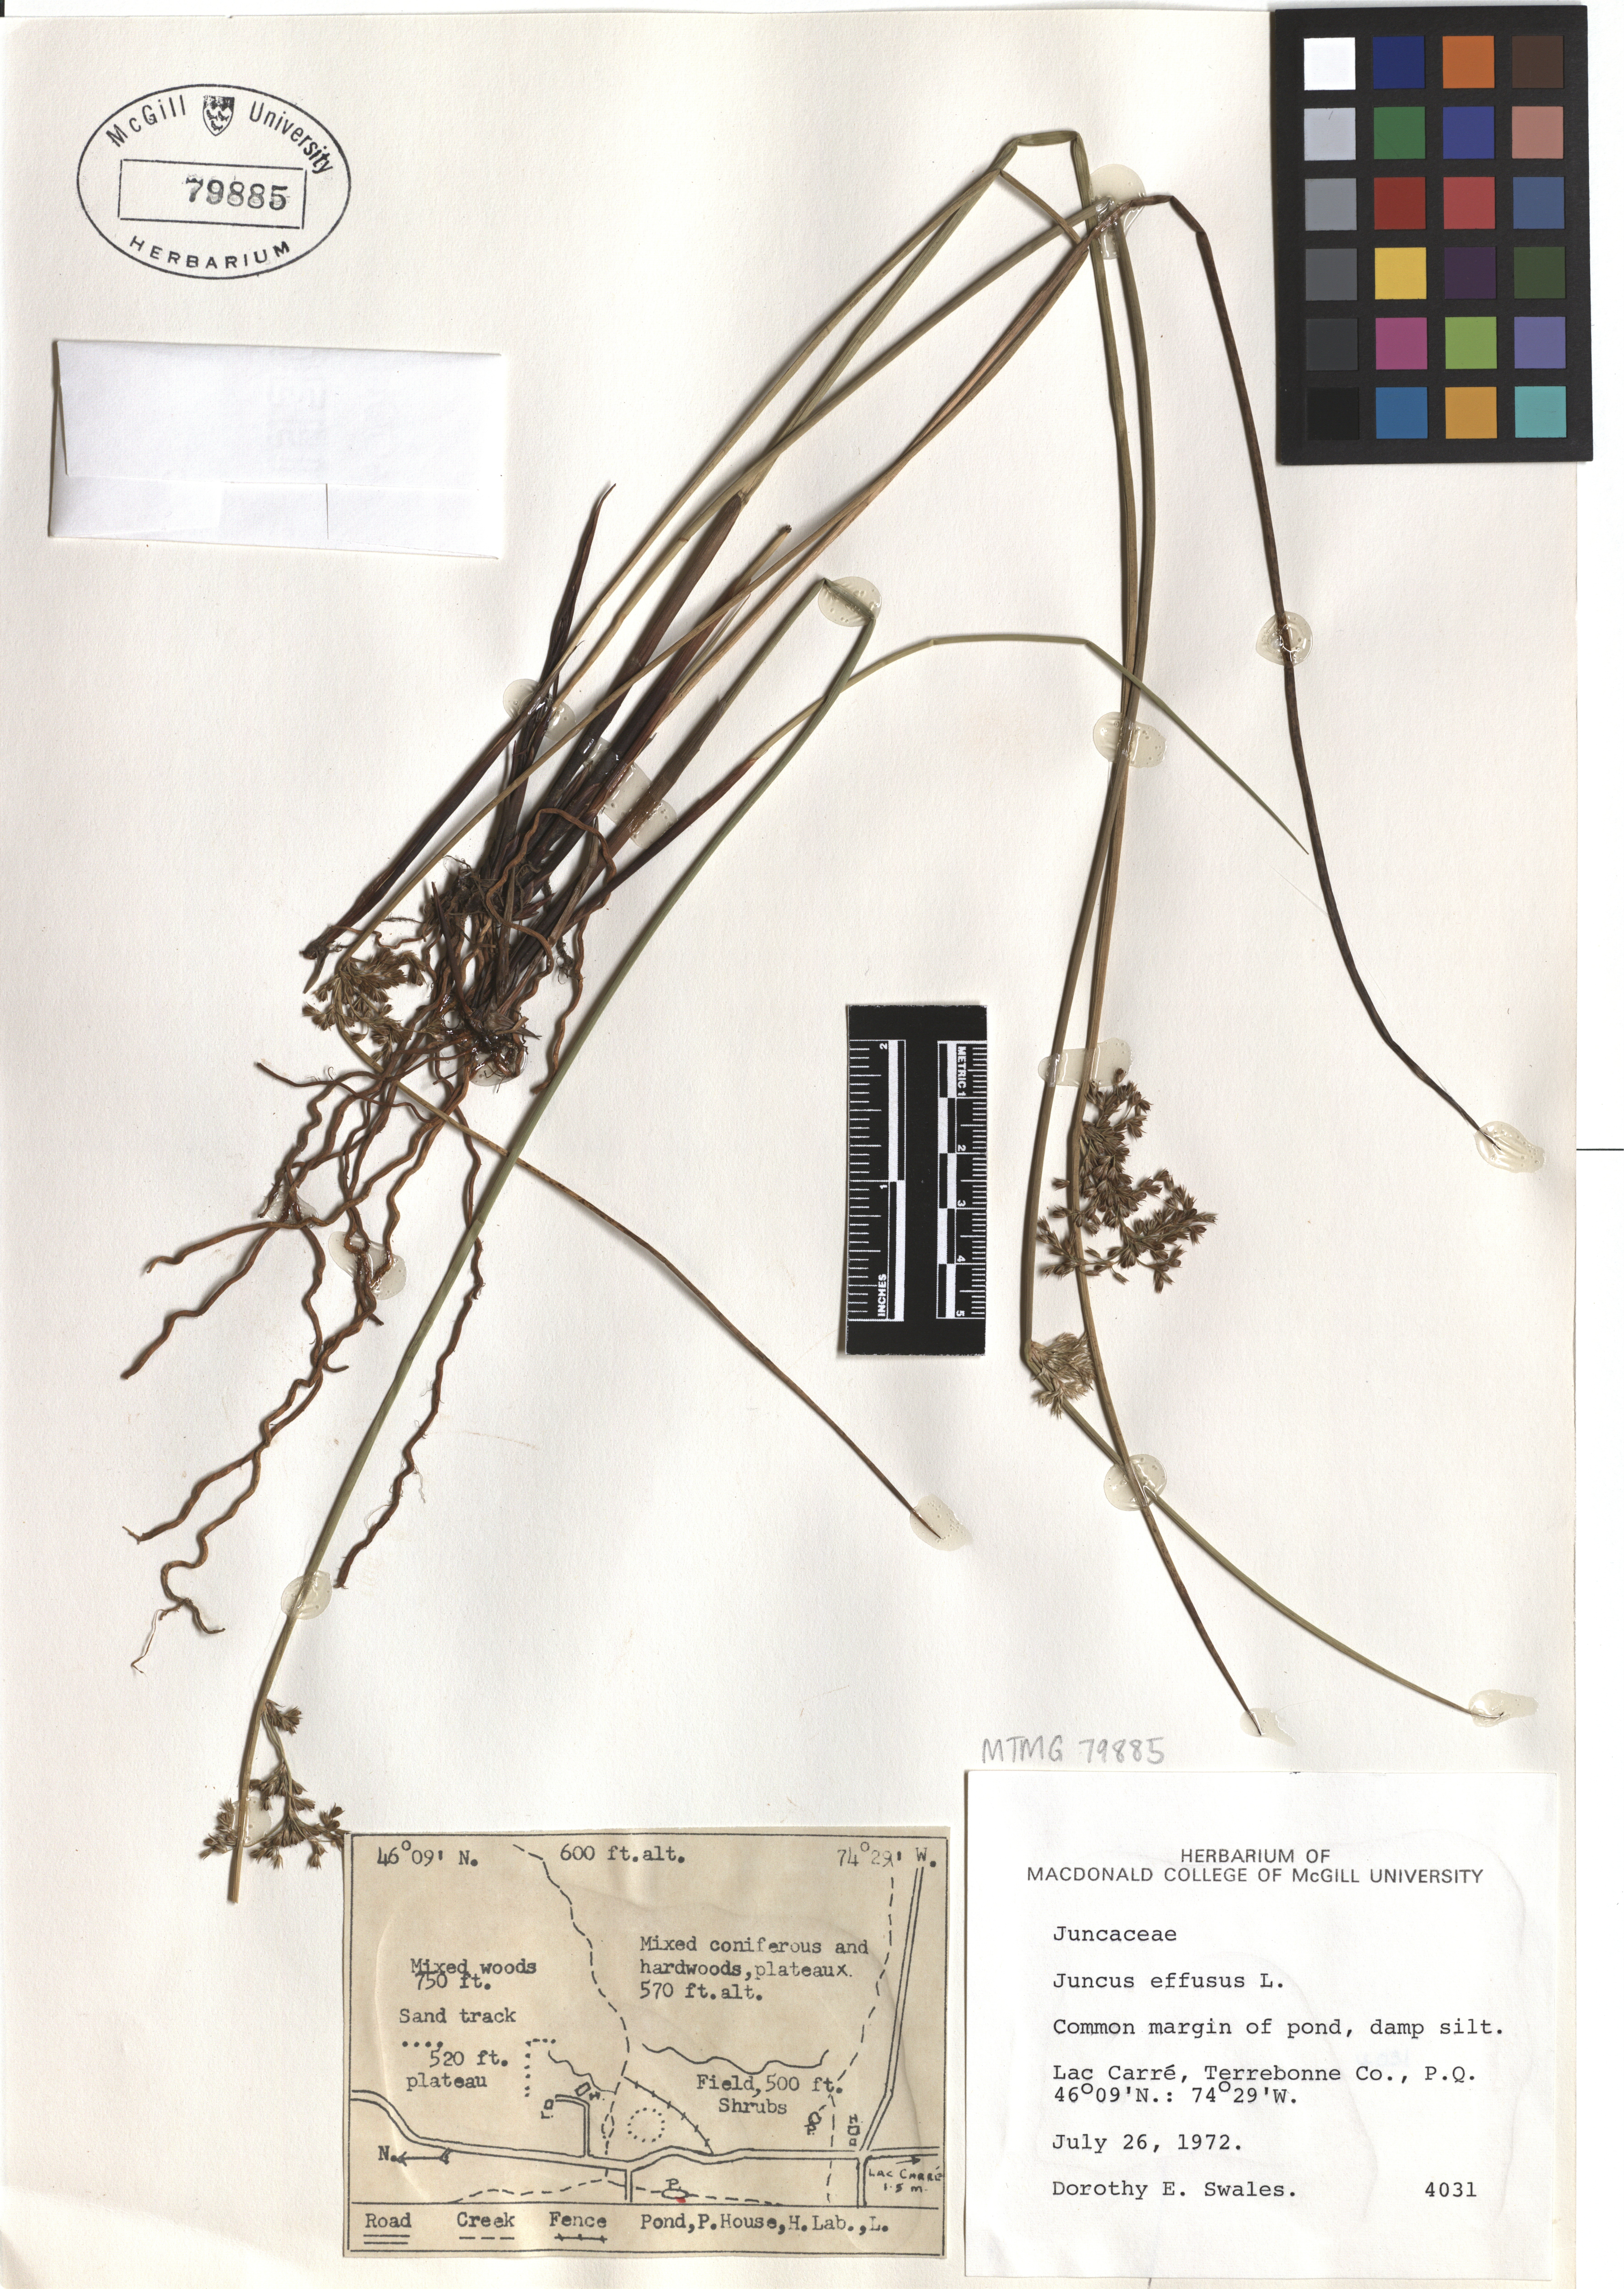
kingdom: Plantae
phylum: Tracheophyta
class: Liliopsida
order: Poales
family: Juncaceae
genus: Juncus
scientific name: Juncus effusus
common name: Soft rush
